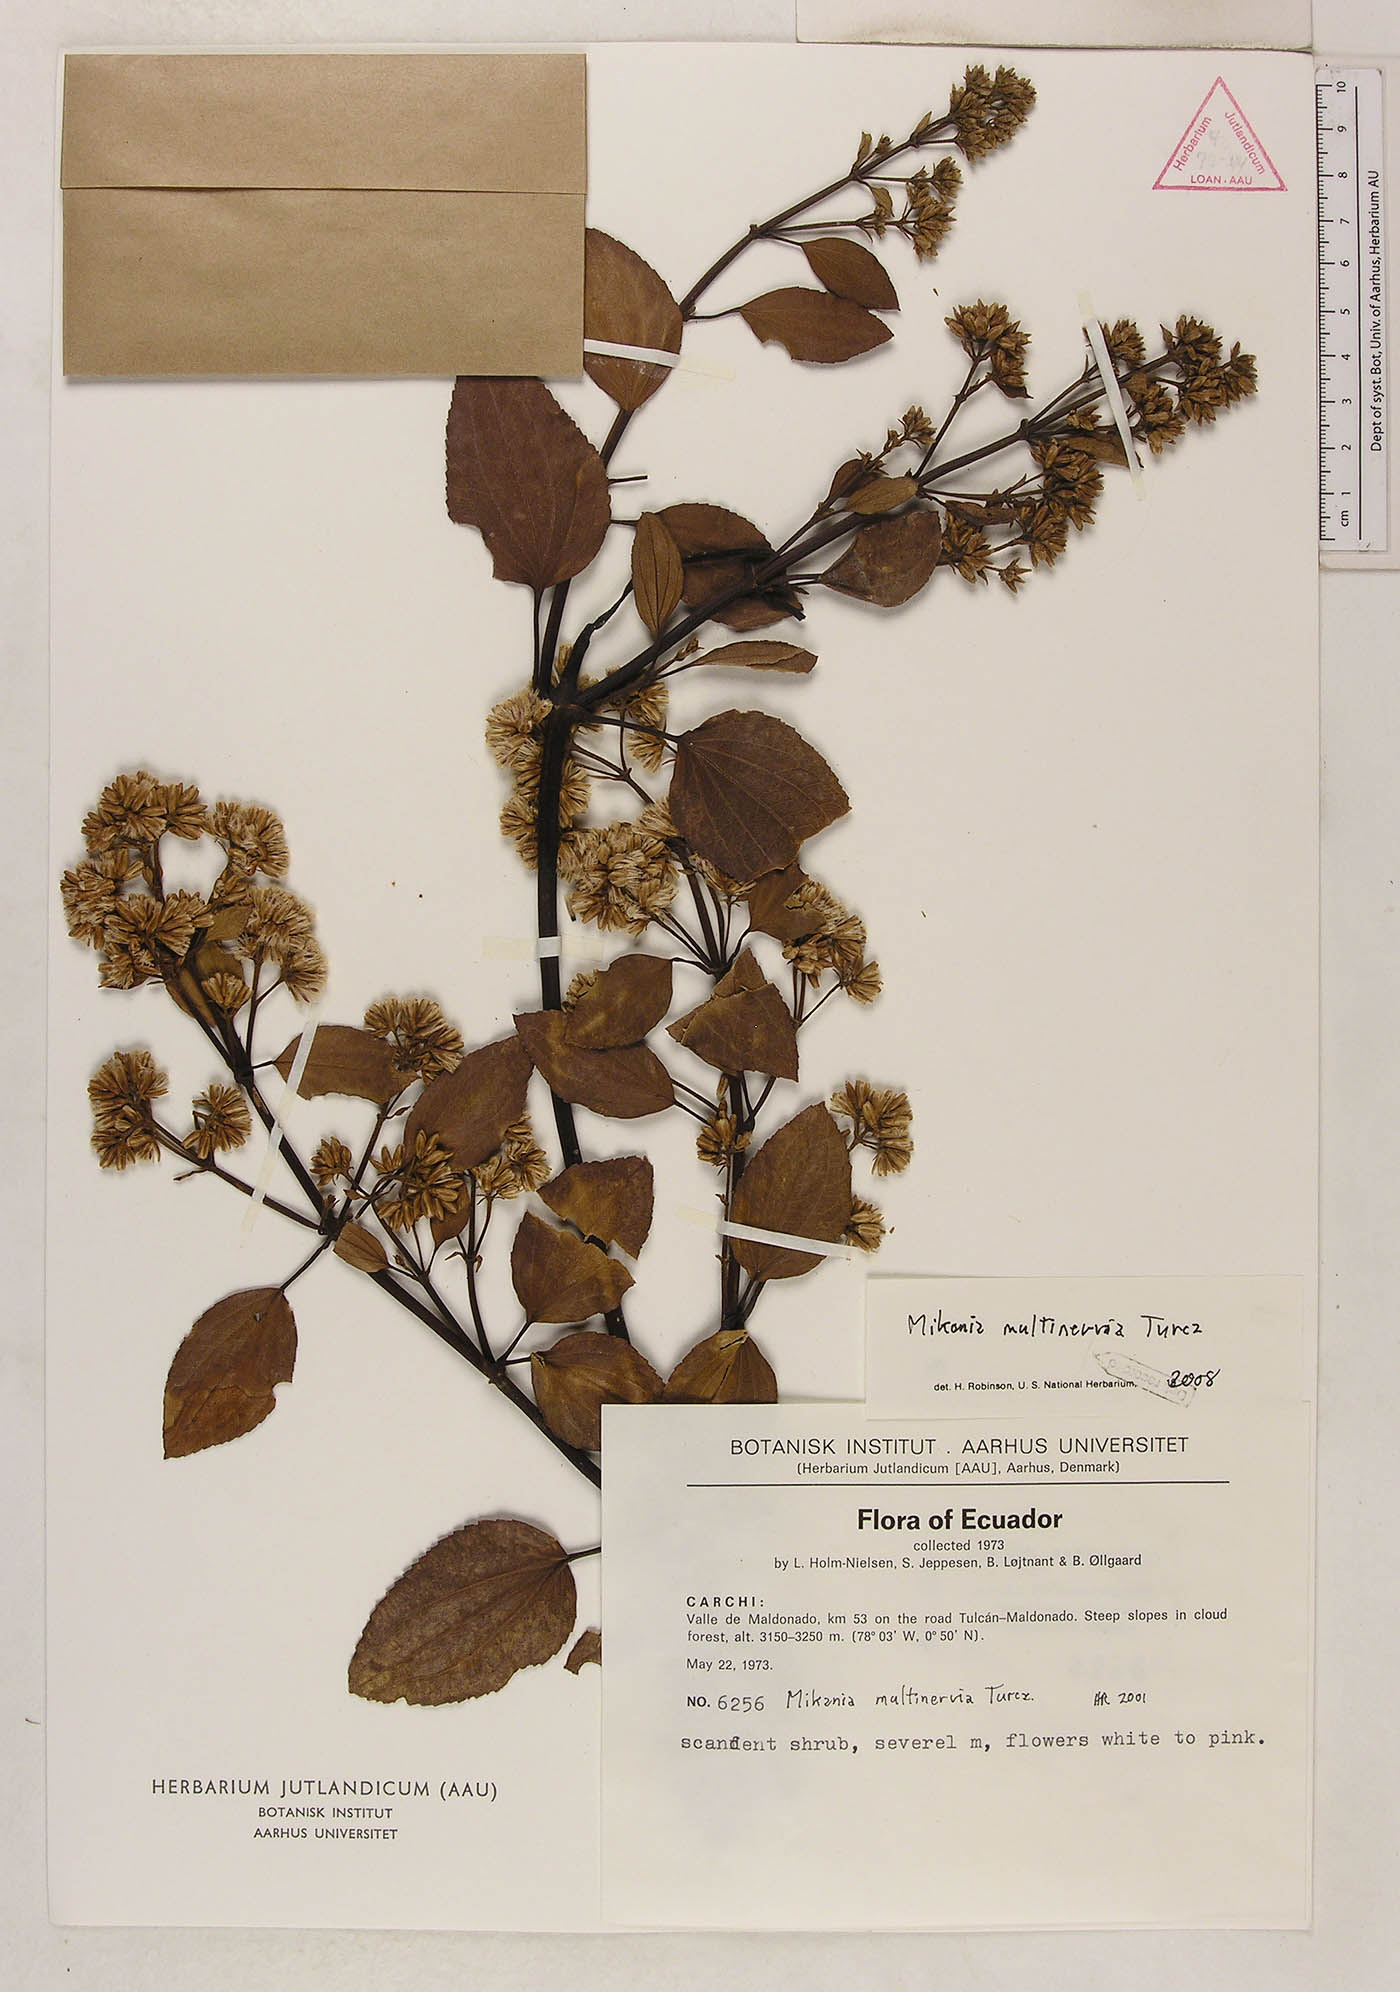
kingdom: Plantae
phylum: Tracheophyta
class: Magnoliopsida
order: Asterales
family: Asteraceae
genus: Mikania
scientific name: Mikania multinervia
